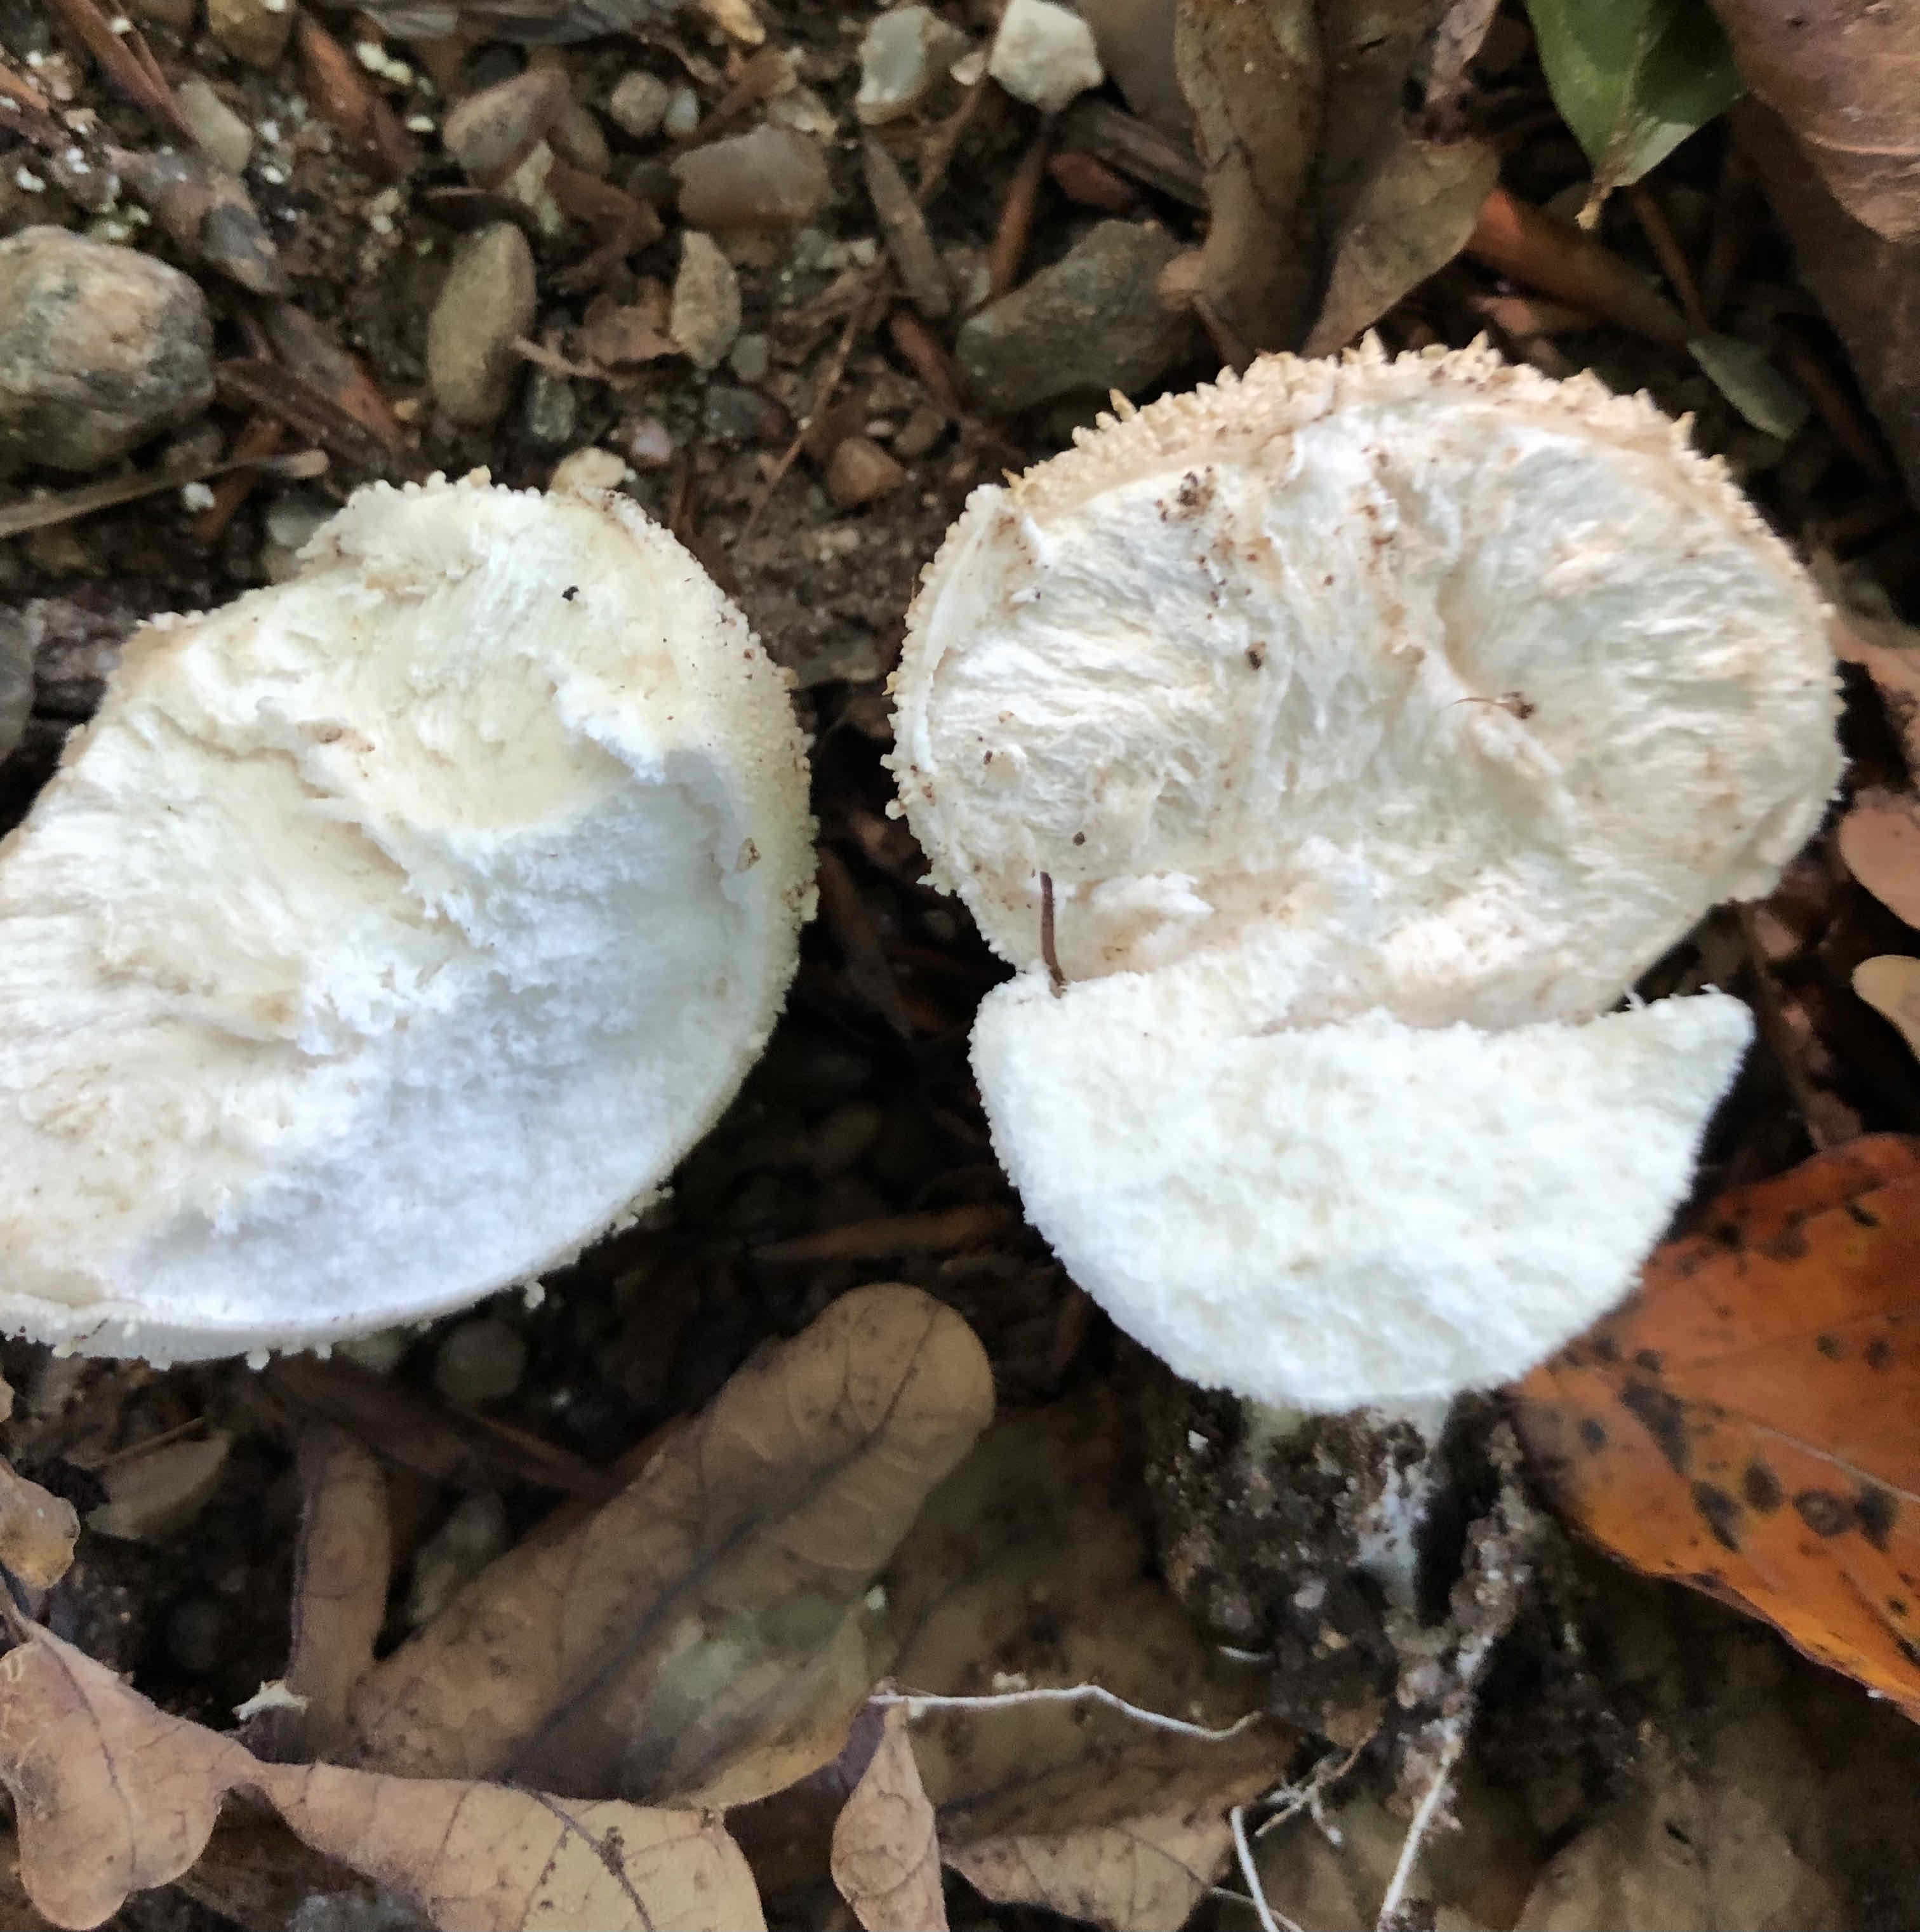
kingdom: Fungi
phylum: Basidiomycota
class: Agaricomycetes
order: Agaricales
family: Lycoperdaceae
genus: Lycoperdon
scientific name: Lycoperdon perlatum
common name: krystal-støvbold
